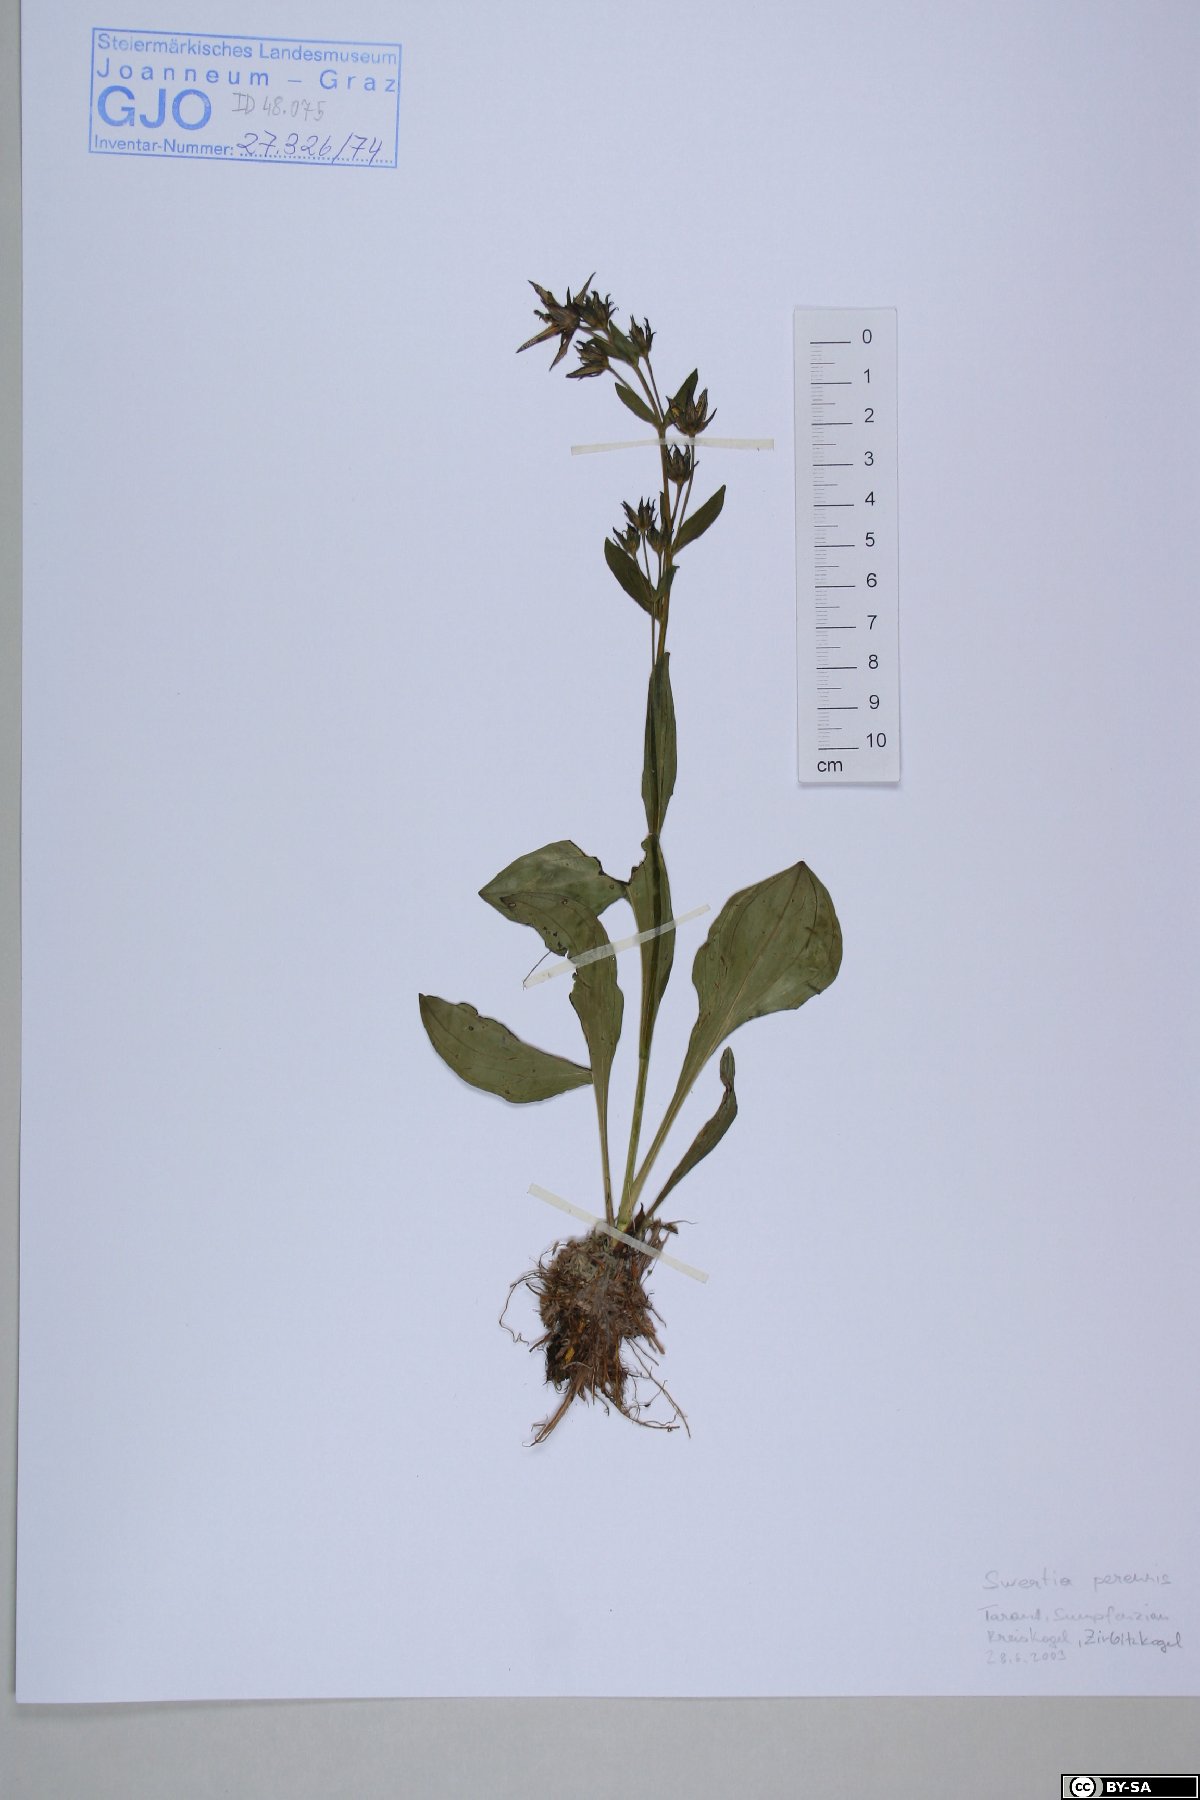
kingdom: Plantae
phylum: Tracheophyta
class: Magnoliopsida
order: Gentianales
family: Gentianaceae
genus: Swertia
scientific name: Swertia perennis
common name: Alpine bog swertia
